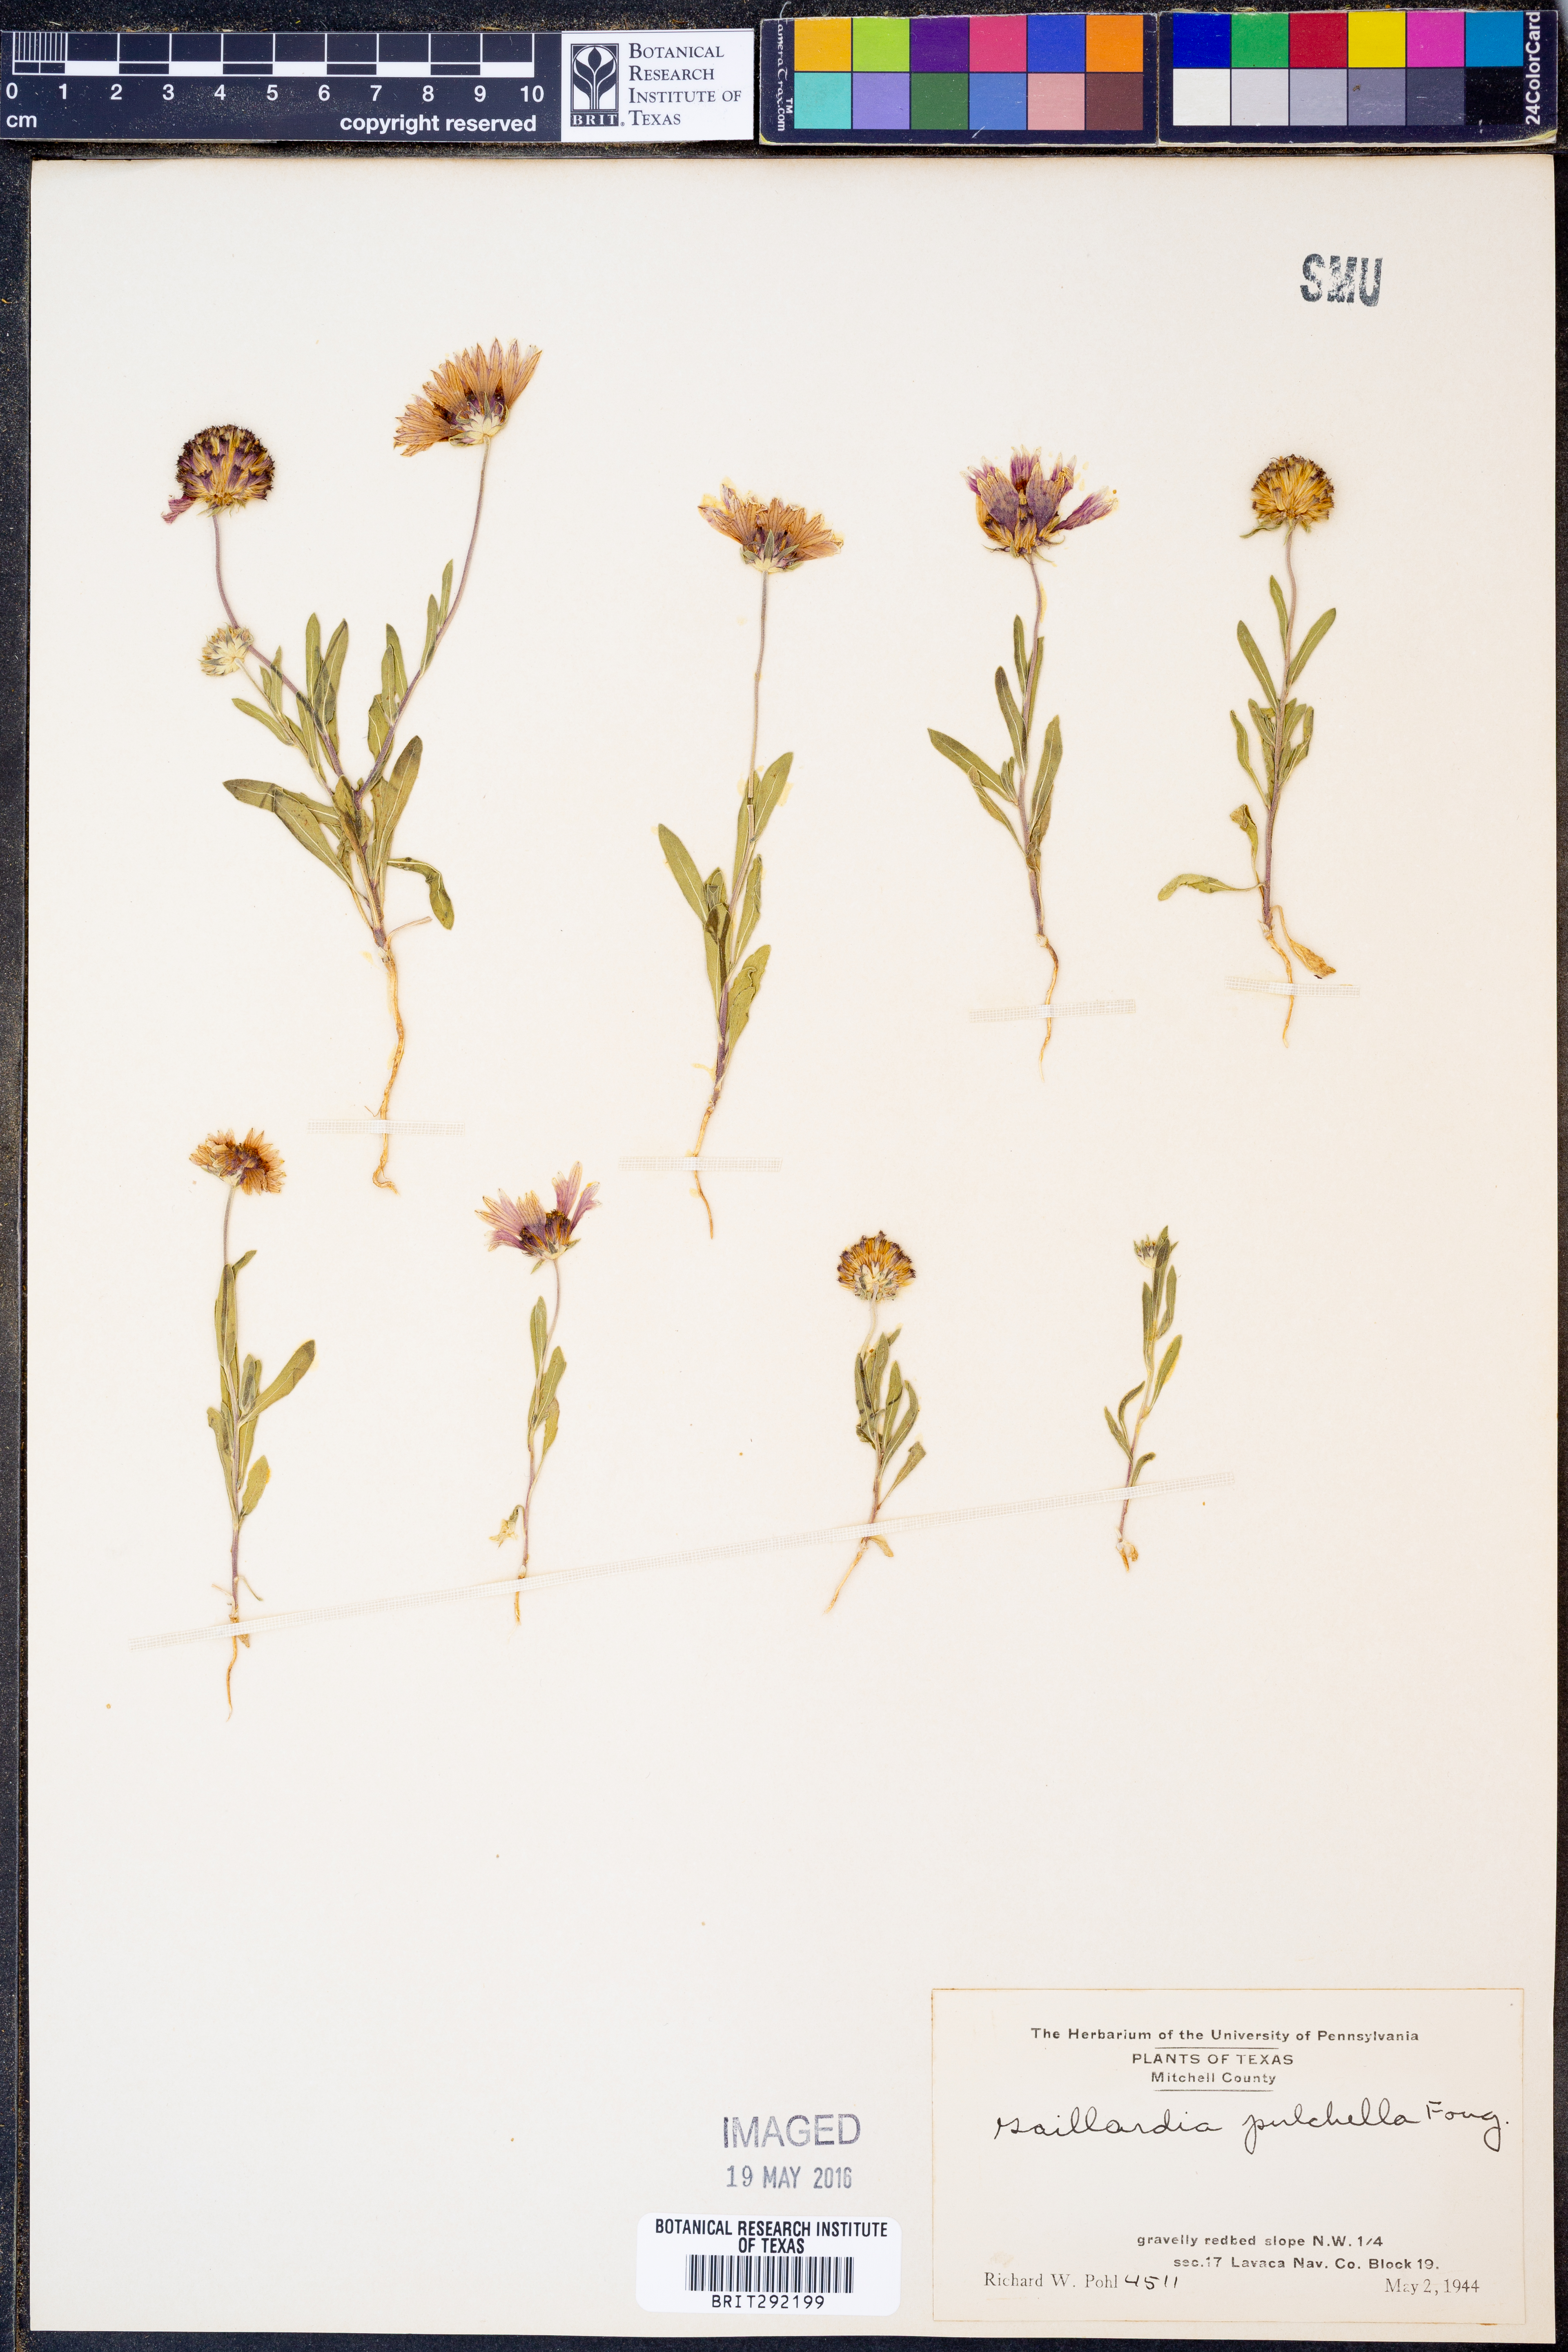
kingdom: Plantae
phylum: Tracheophyta
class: Magnoliopsida
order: Asterales
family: Asteraceae
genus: Gaillardia
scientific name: Gaillardia pulchella
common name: Firewheel
